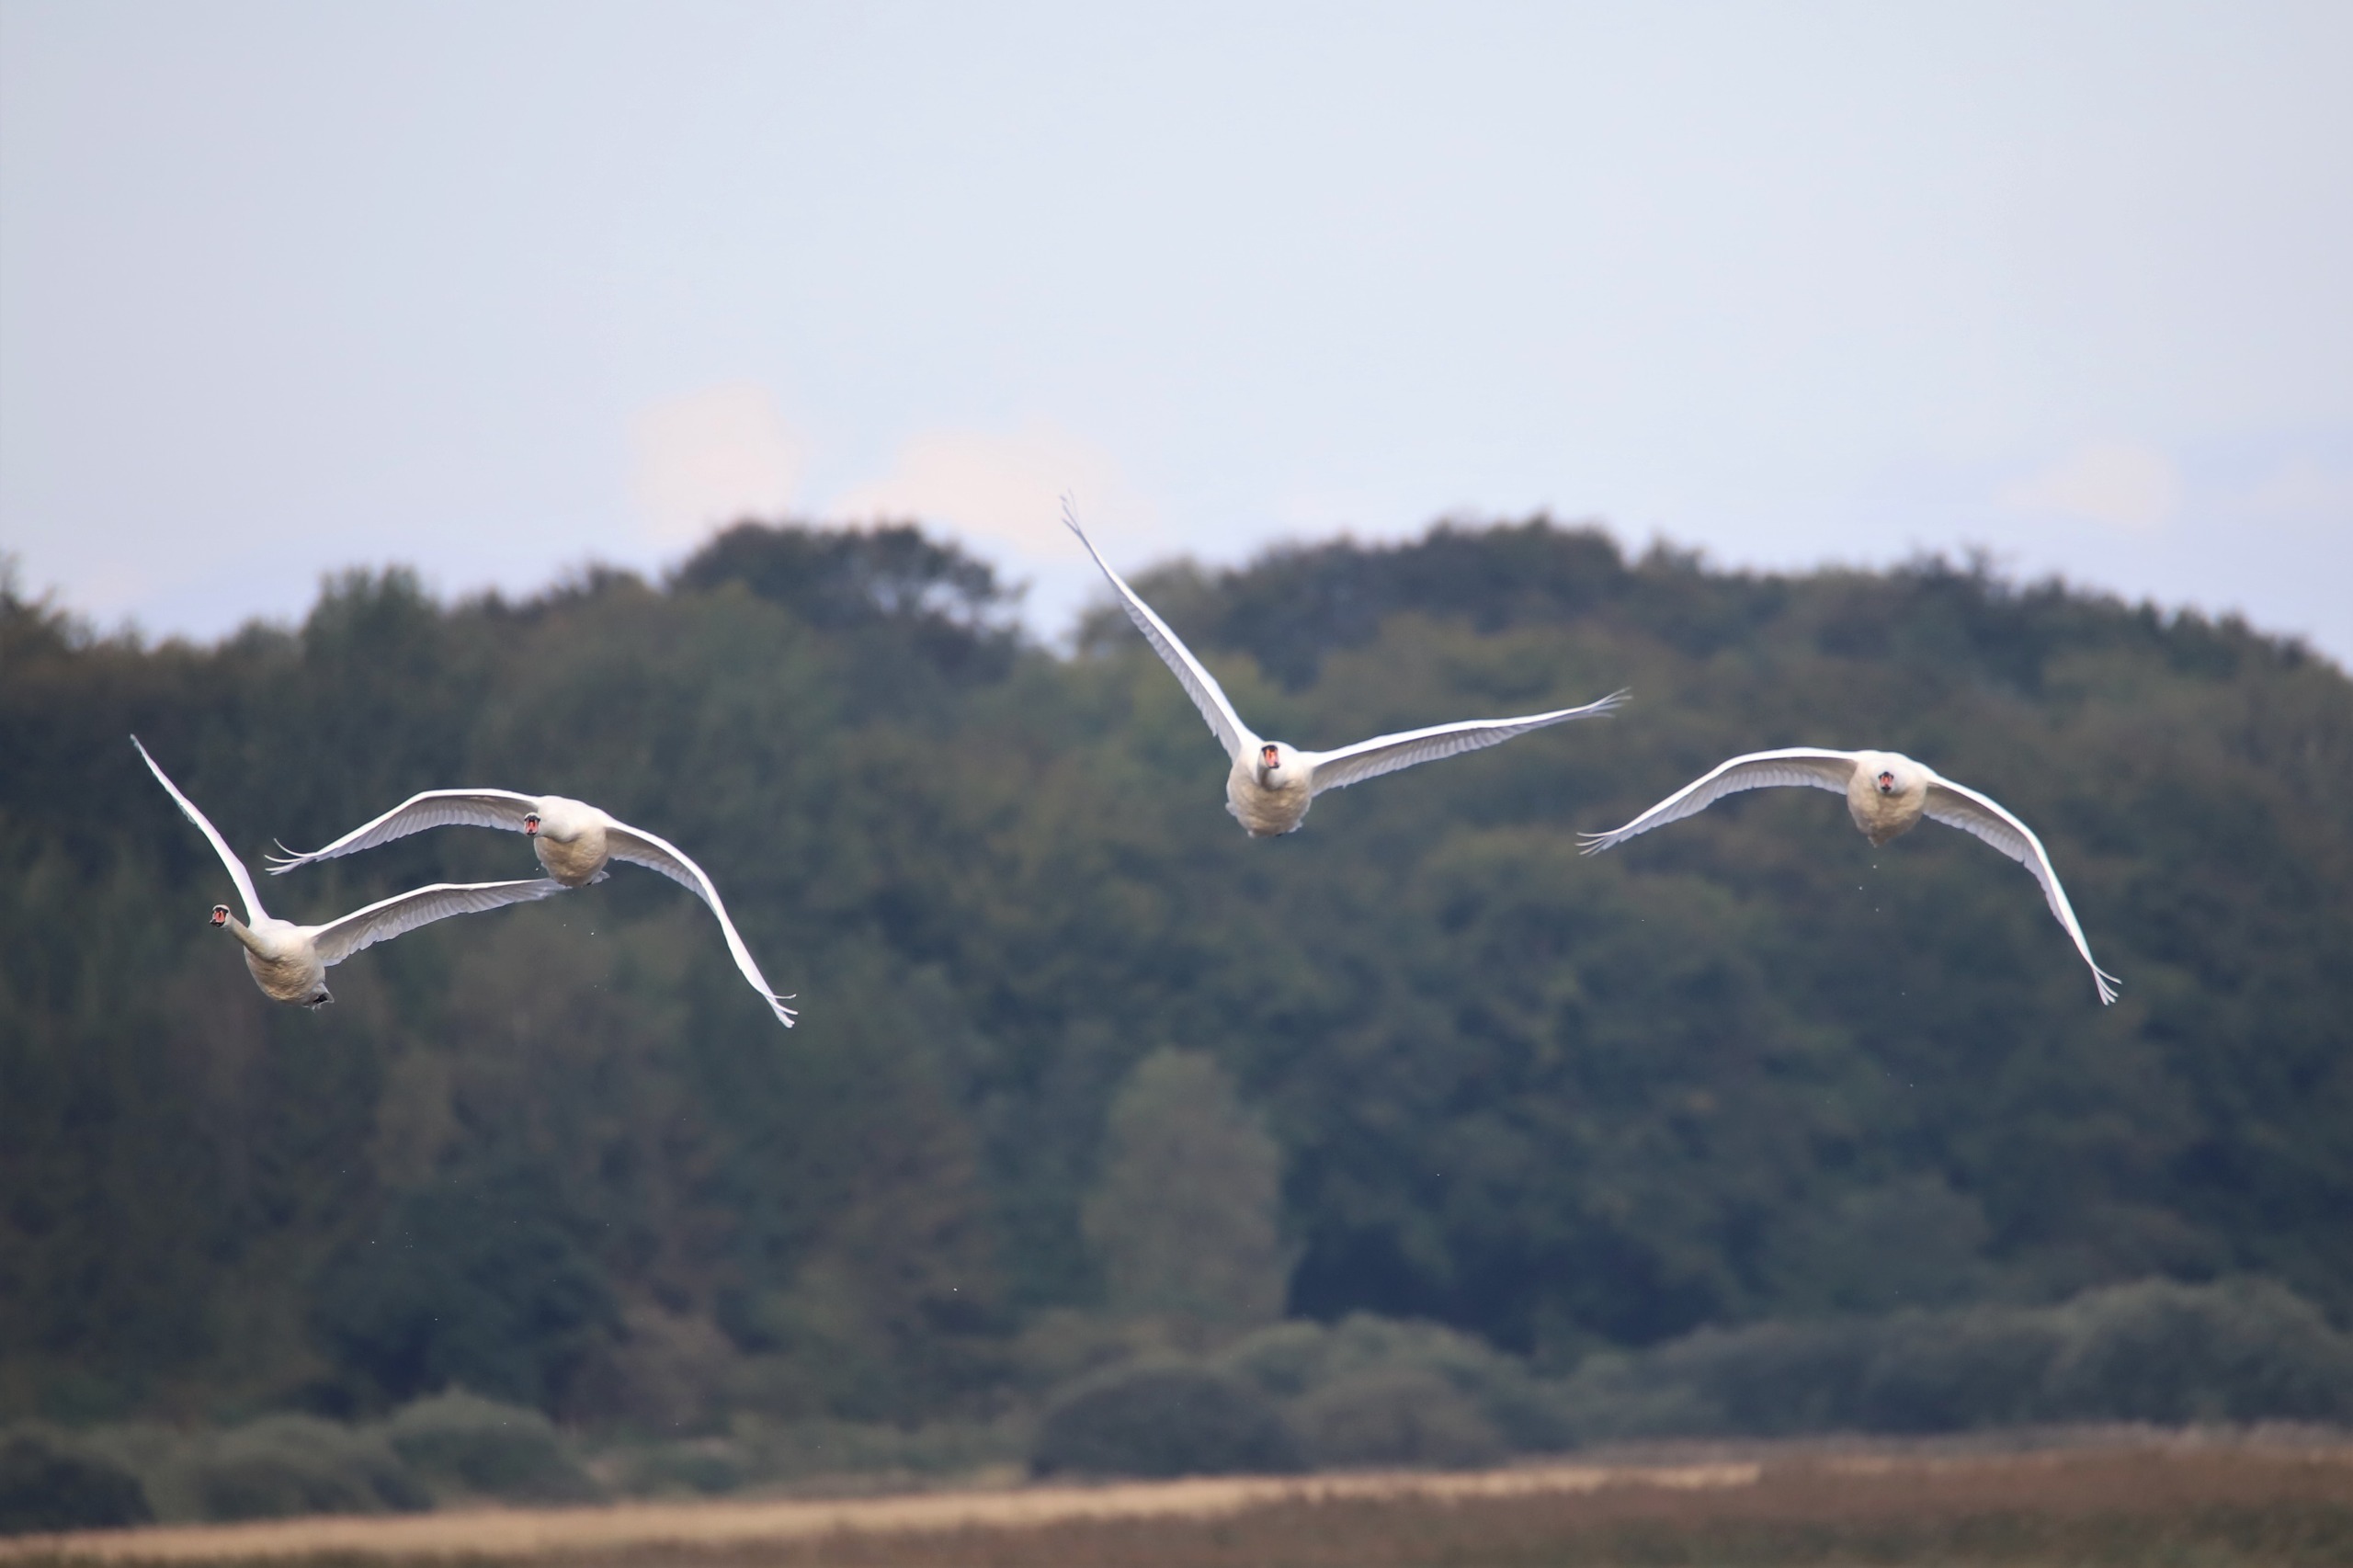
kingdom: Animalia
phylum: Chordata
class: Aves
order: Anseriformes
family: Anatidae
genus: Cygnus
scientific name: Cygnus olor
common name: Knopsvane
